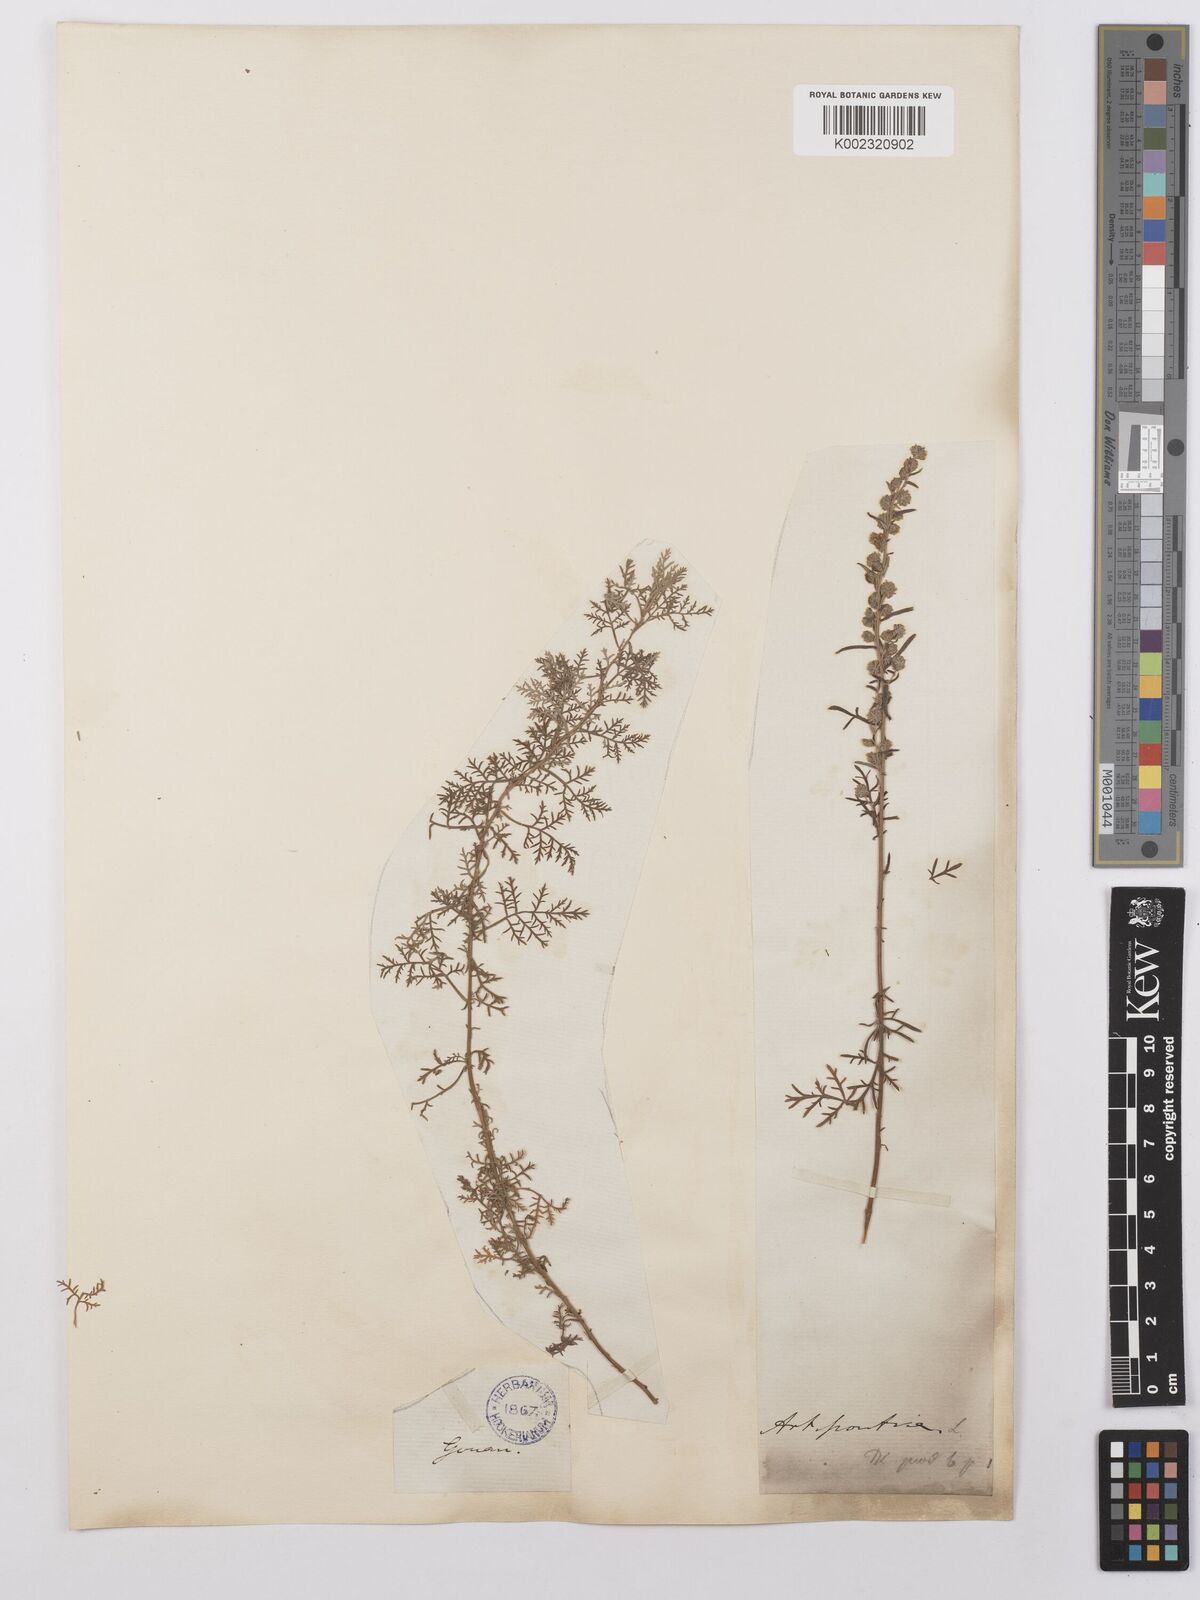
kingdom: Plantae
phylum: Tracheophyta
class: Magnoliopsida
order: Asterales
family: Asteraceae
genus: Artemisia
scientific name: Artemisia pontica
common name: Roman wormwood
